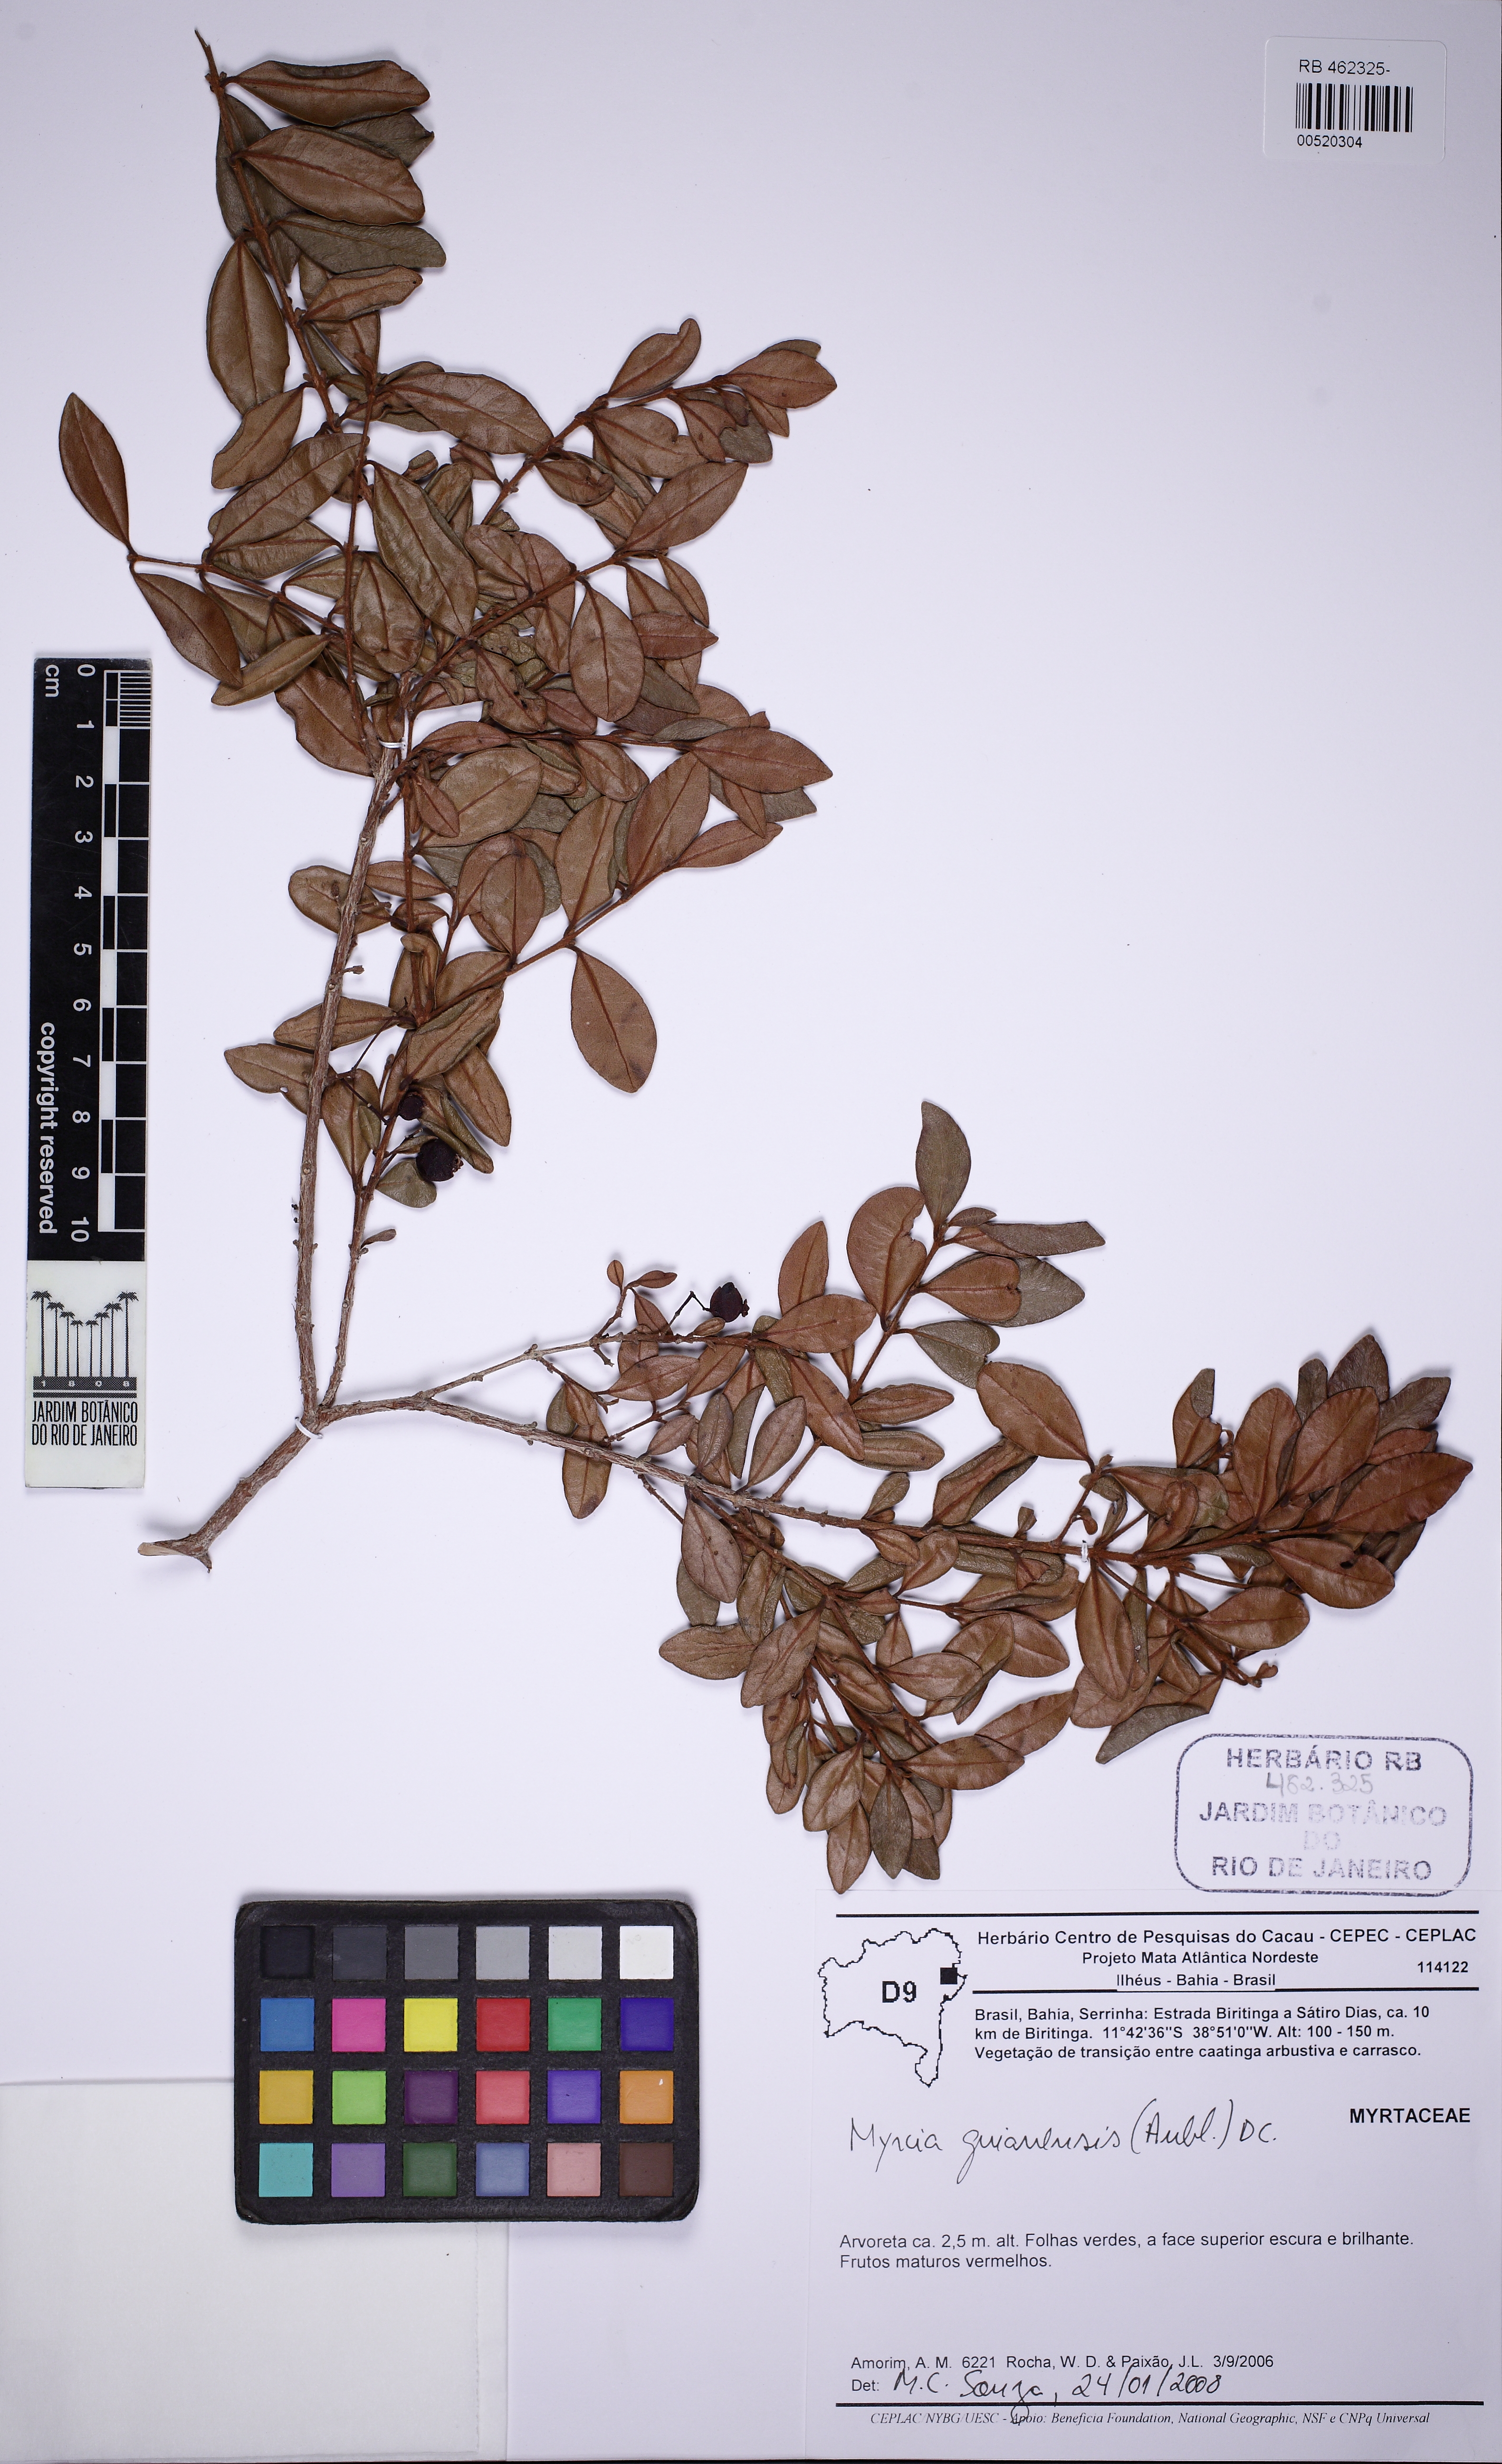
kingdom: Plantae
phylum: Tracheophyta
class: Magnoliopsida
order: Myrtales
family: Myrtaceae
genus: Myrcia
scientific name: Myrcia guianensis
